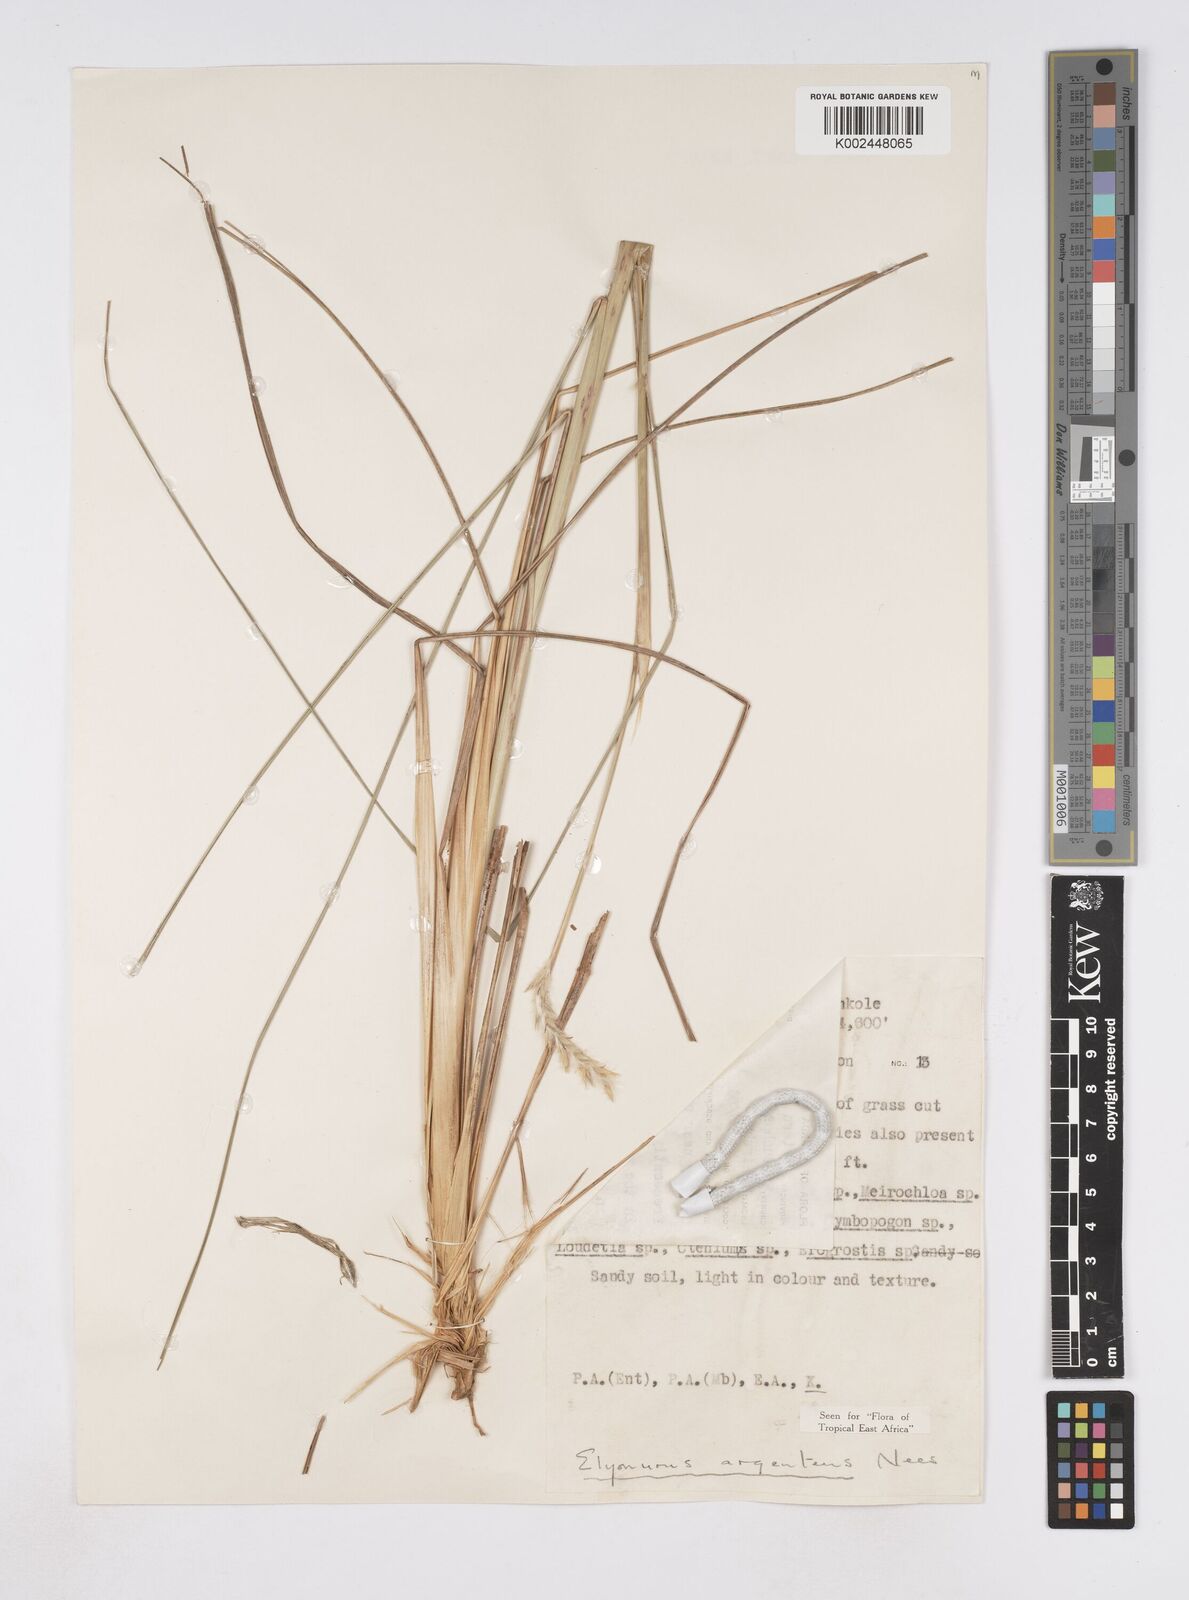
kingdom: Plantae
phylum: Tracheophyta
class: Liliopsida
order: Poales
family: Poaceae
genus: Elionurus
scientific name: Elionurus muticus
